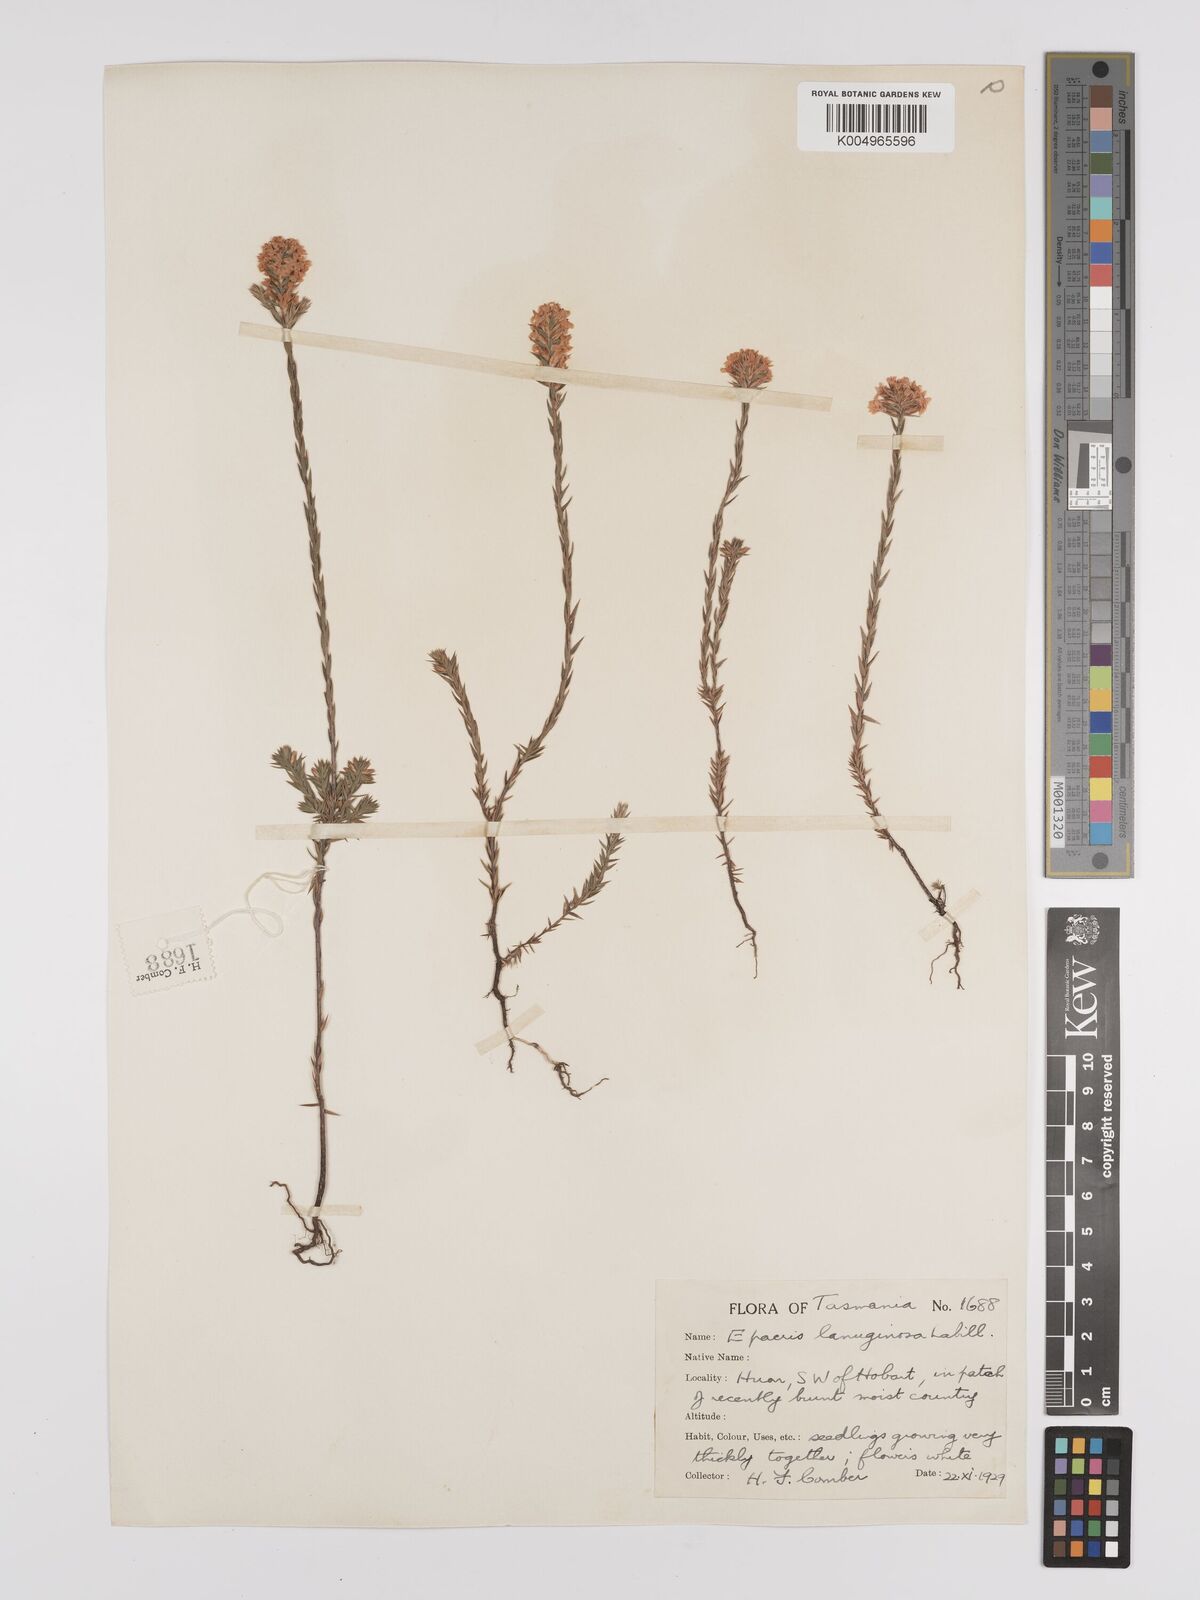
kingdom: Plantae
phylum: Tracheophyta
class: Magnoliopsida
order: Ericales
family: Ericaceae
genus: Epacris
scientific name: Epacris lanuginosa
